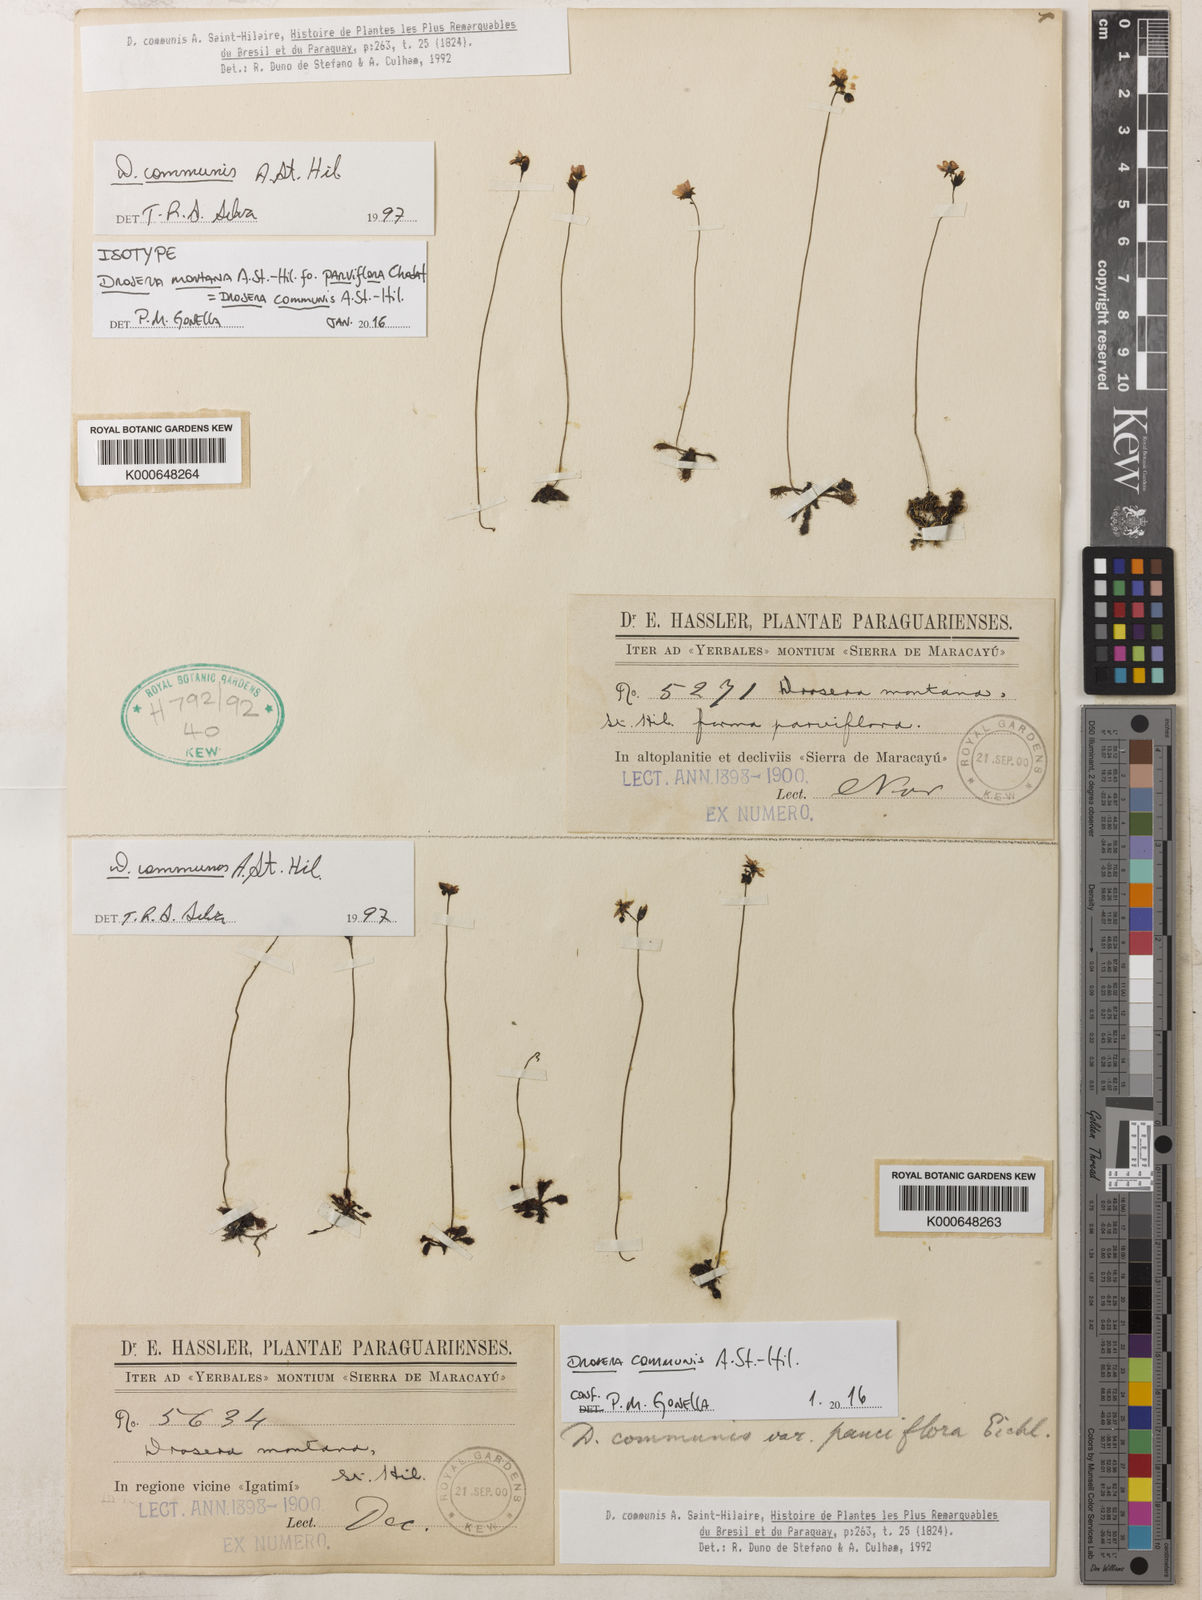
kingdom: Plantae
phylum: Tracheophyta
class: Magnoliopsida
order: Caryophyllales
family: Droseraceae
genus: Drosera
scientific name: Drosera communis
